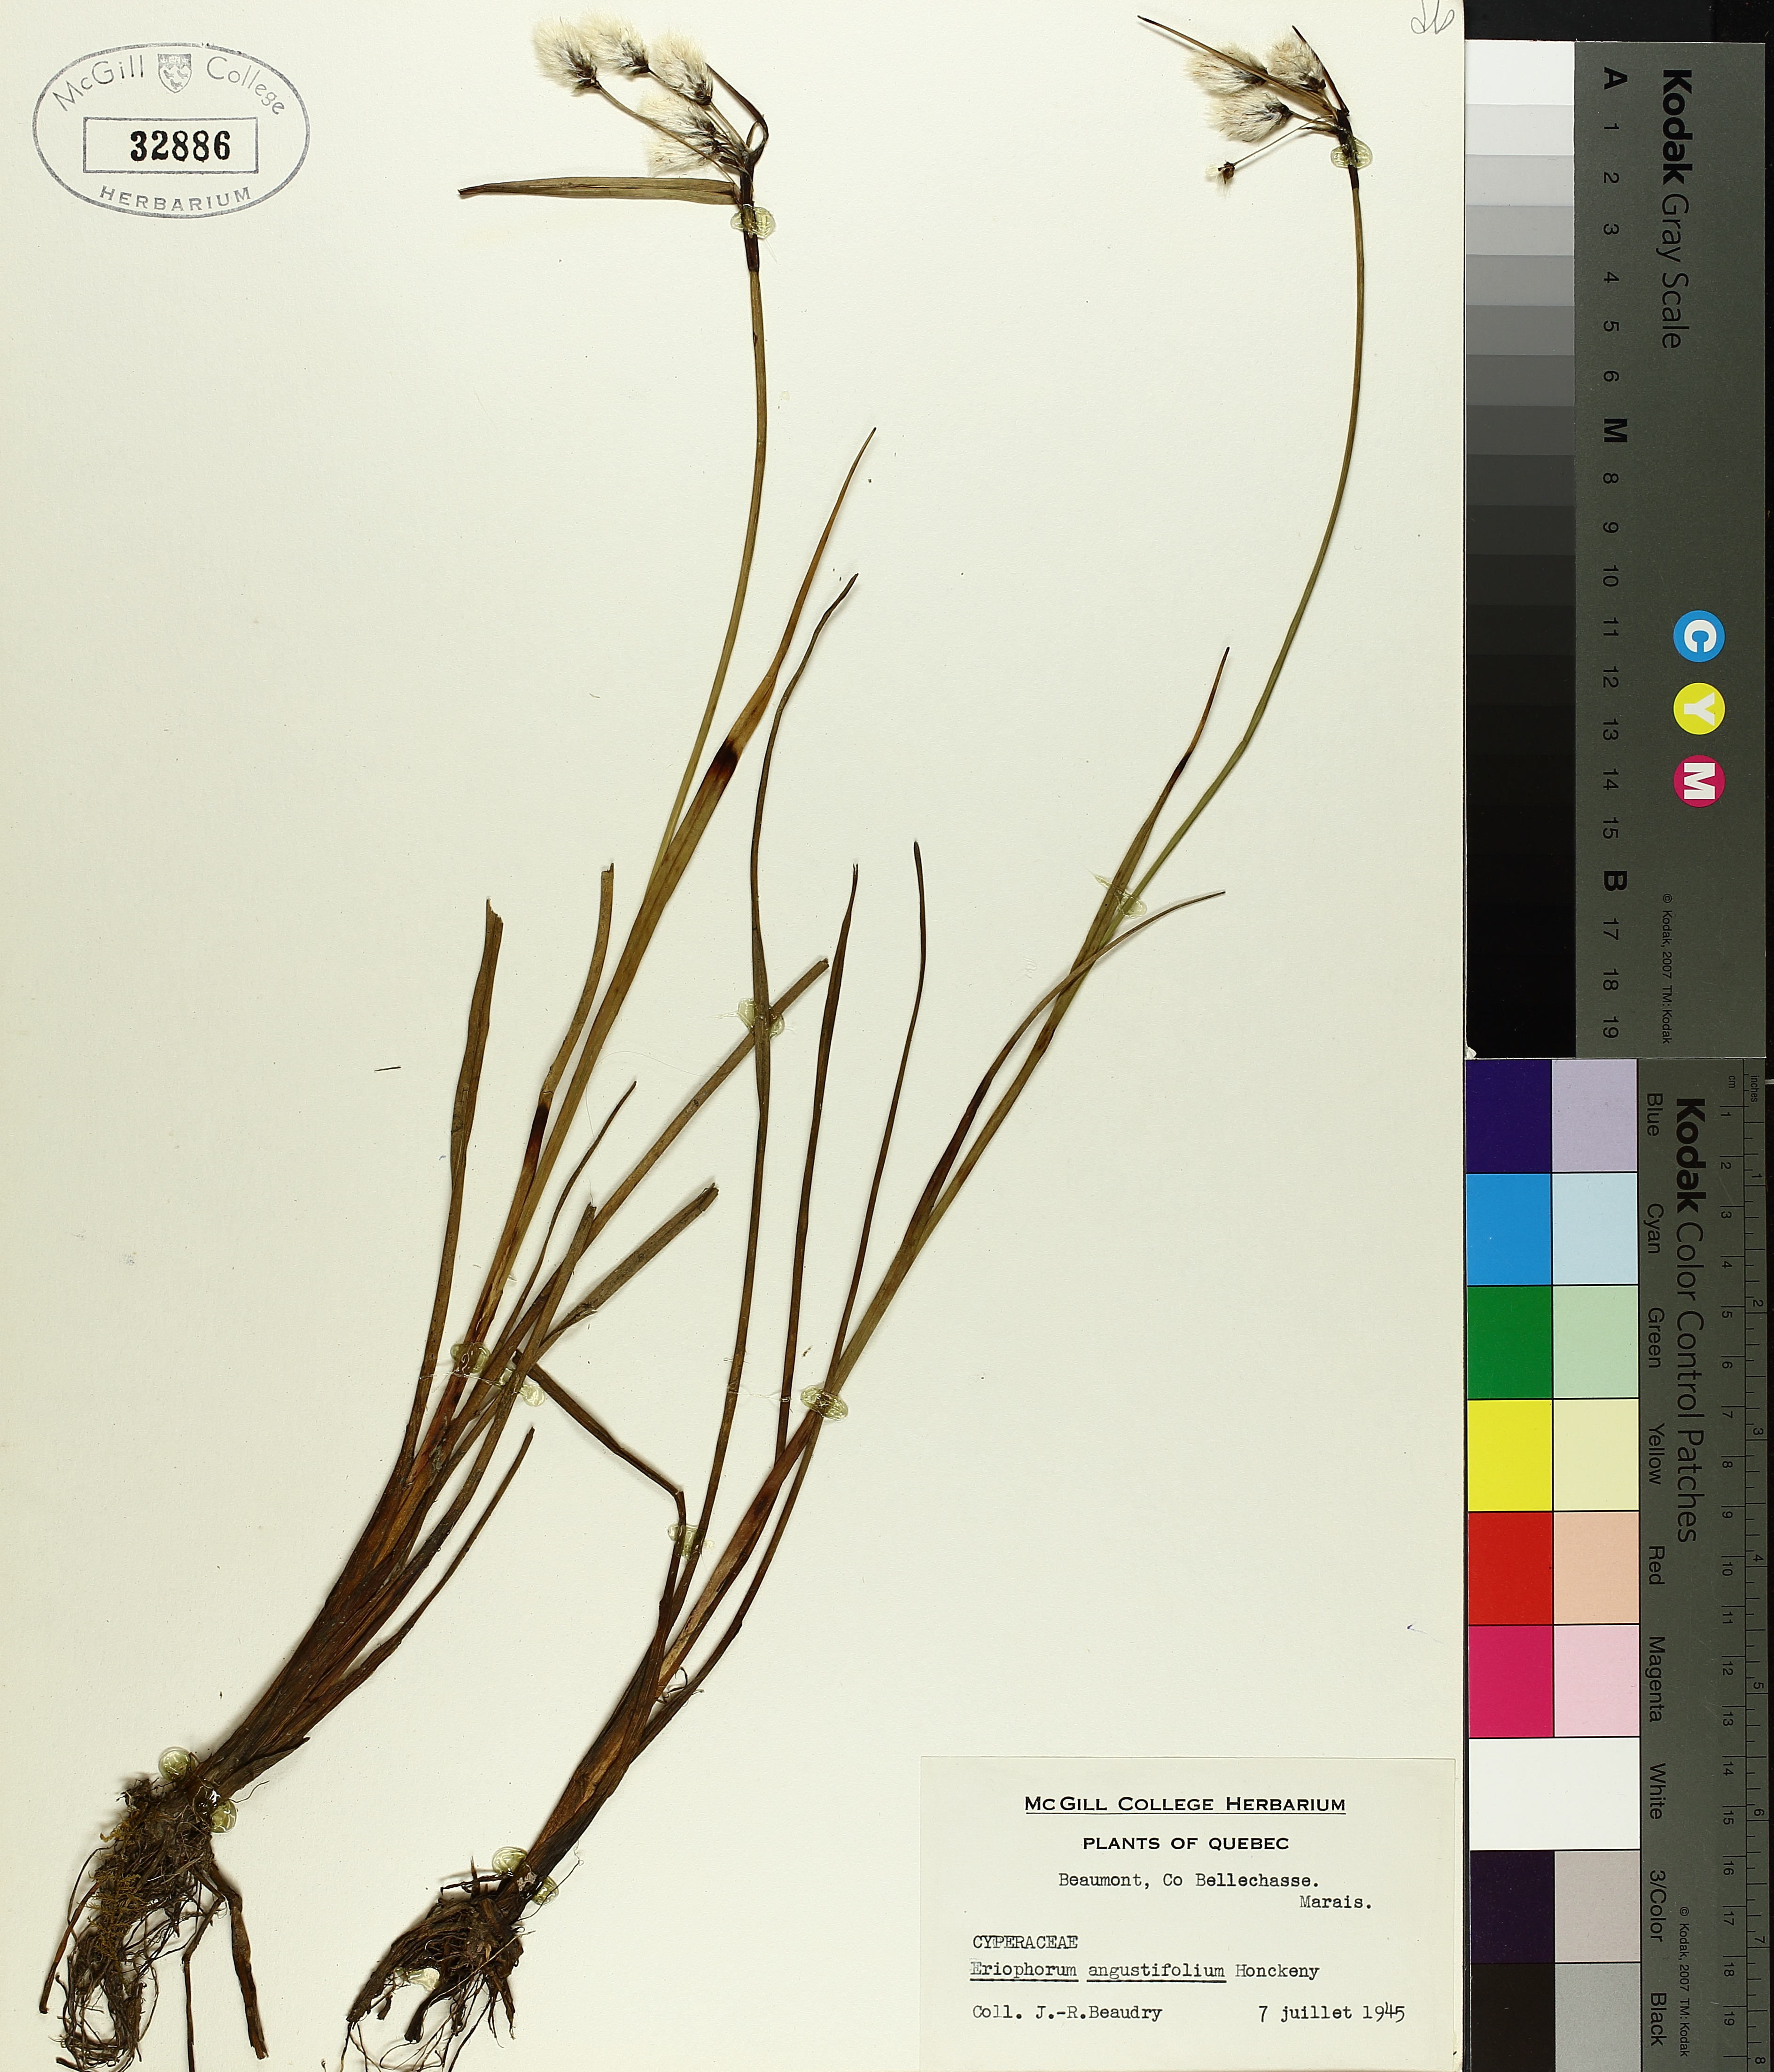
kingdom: Plantae
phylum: Tracheophyta
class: Liliopsida
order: Poales
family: Cyperaceae
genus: Eriophorum
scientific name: Eriophorum triste
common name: Tall cottongrass
